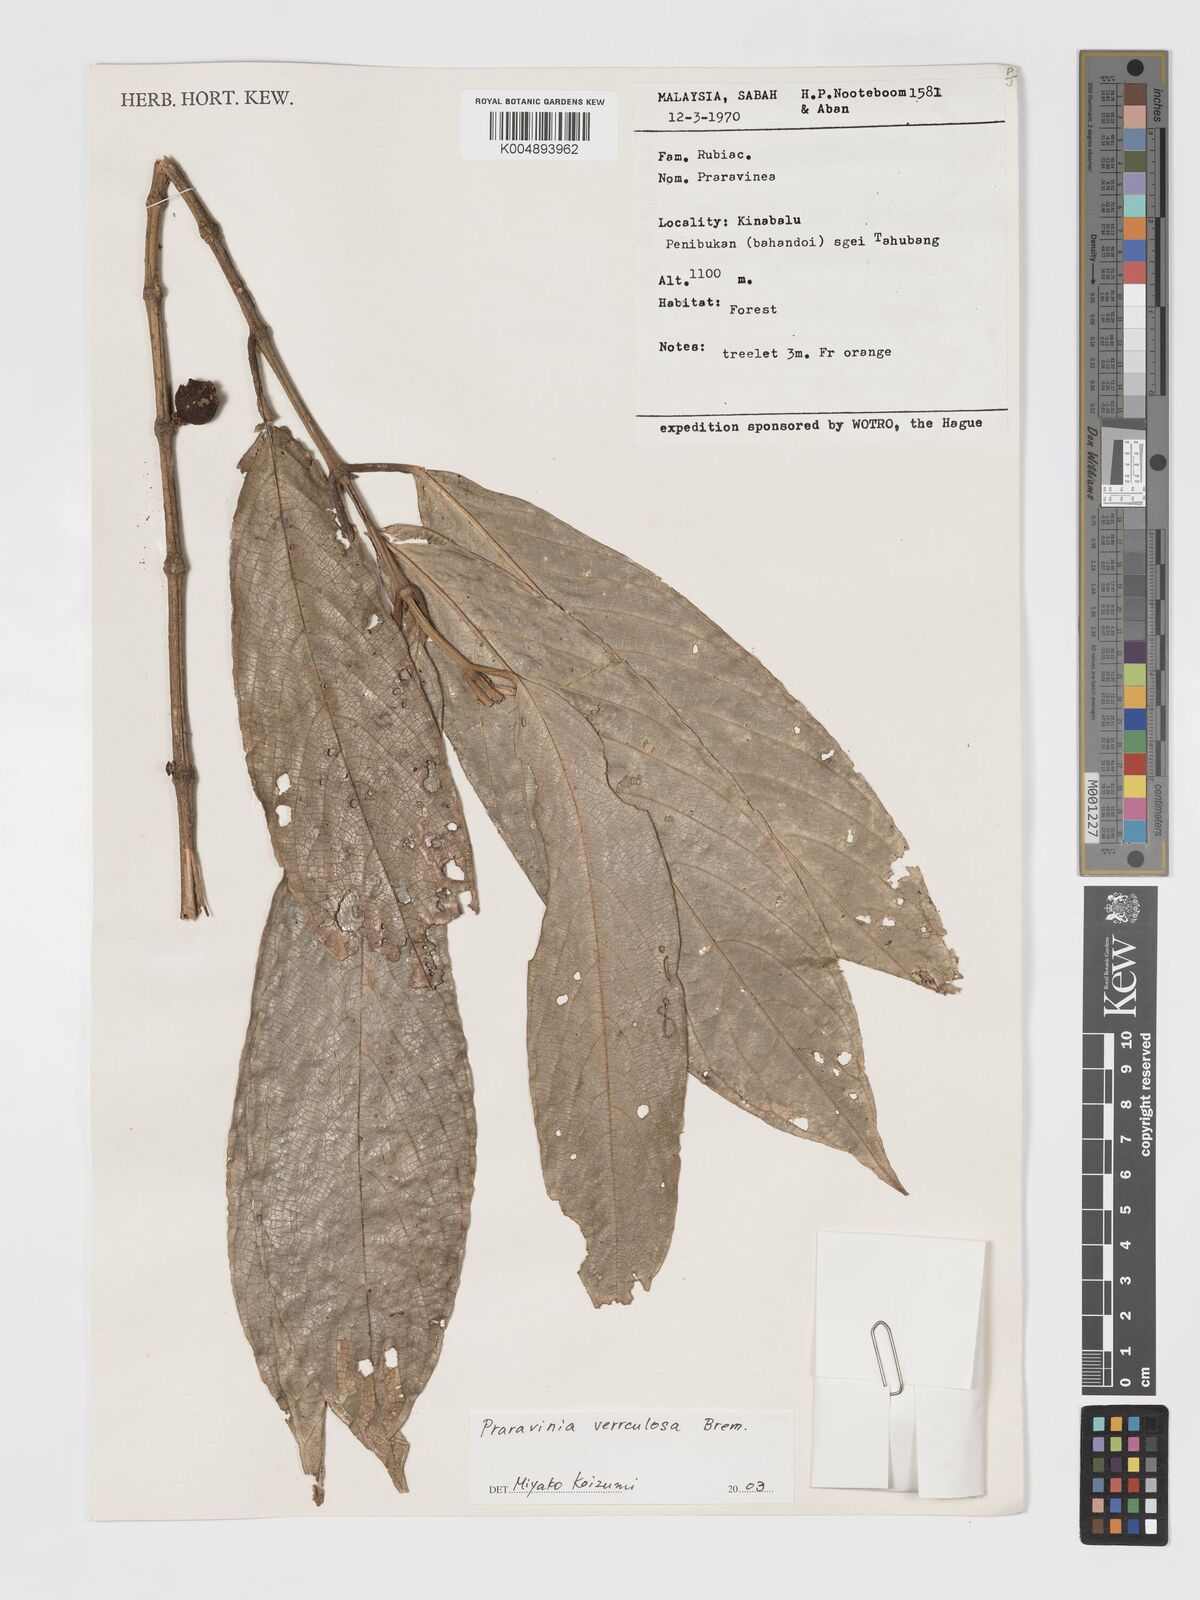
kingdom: Plantae
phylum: Tracheophyta
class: Magnoliopsida
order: Gentianales
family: Rubiaceae
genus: Praravinia
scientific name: Praravinia verruculosa
